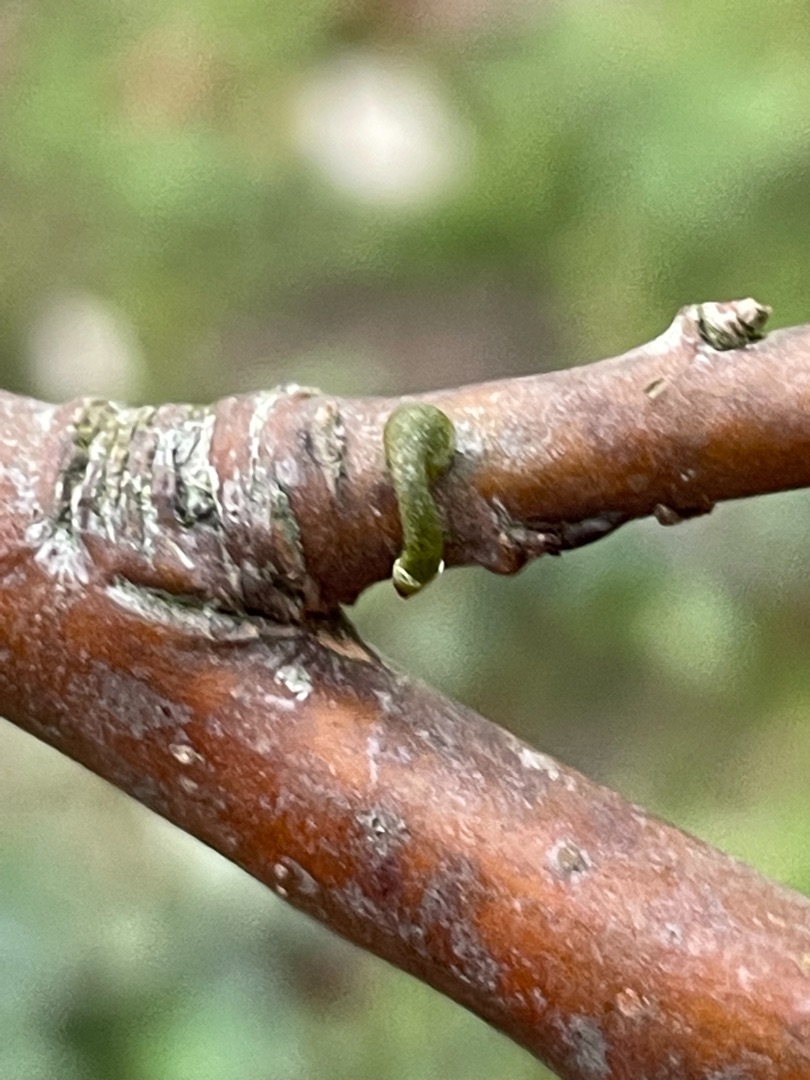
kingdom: Plantae
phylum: Tracheophyta
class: Magnoliopsida
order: Santalales
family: Viscaceae
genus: Viscum
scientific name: Viscum album
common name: Mistelten
